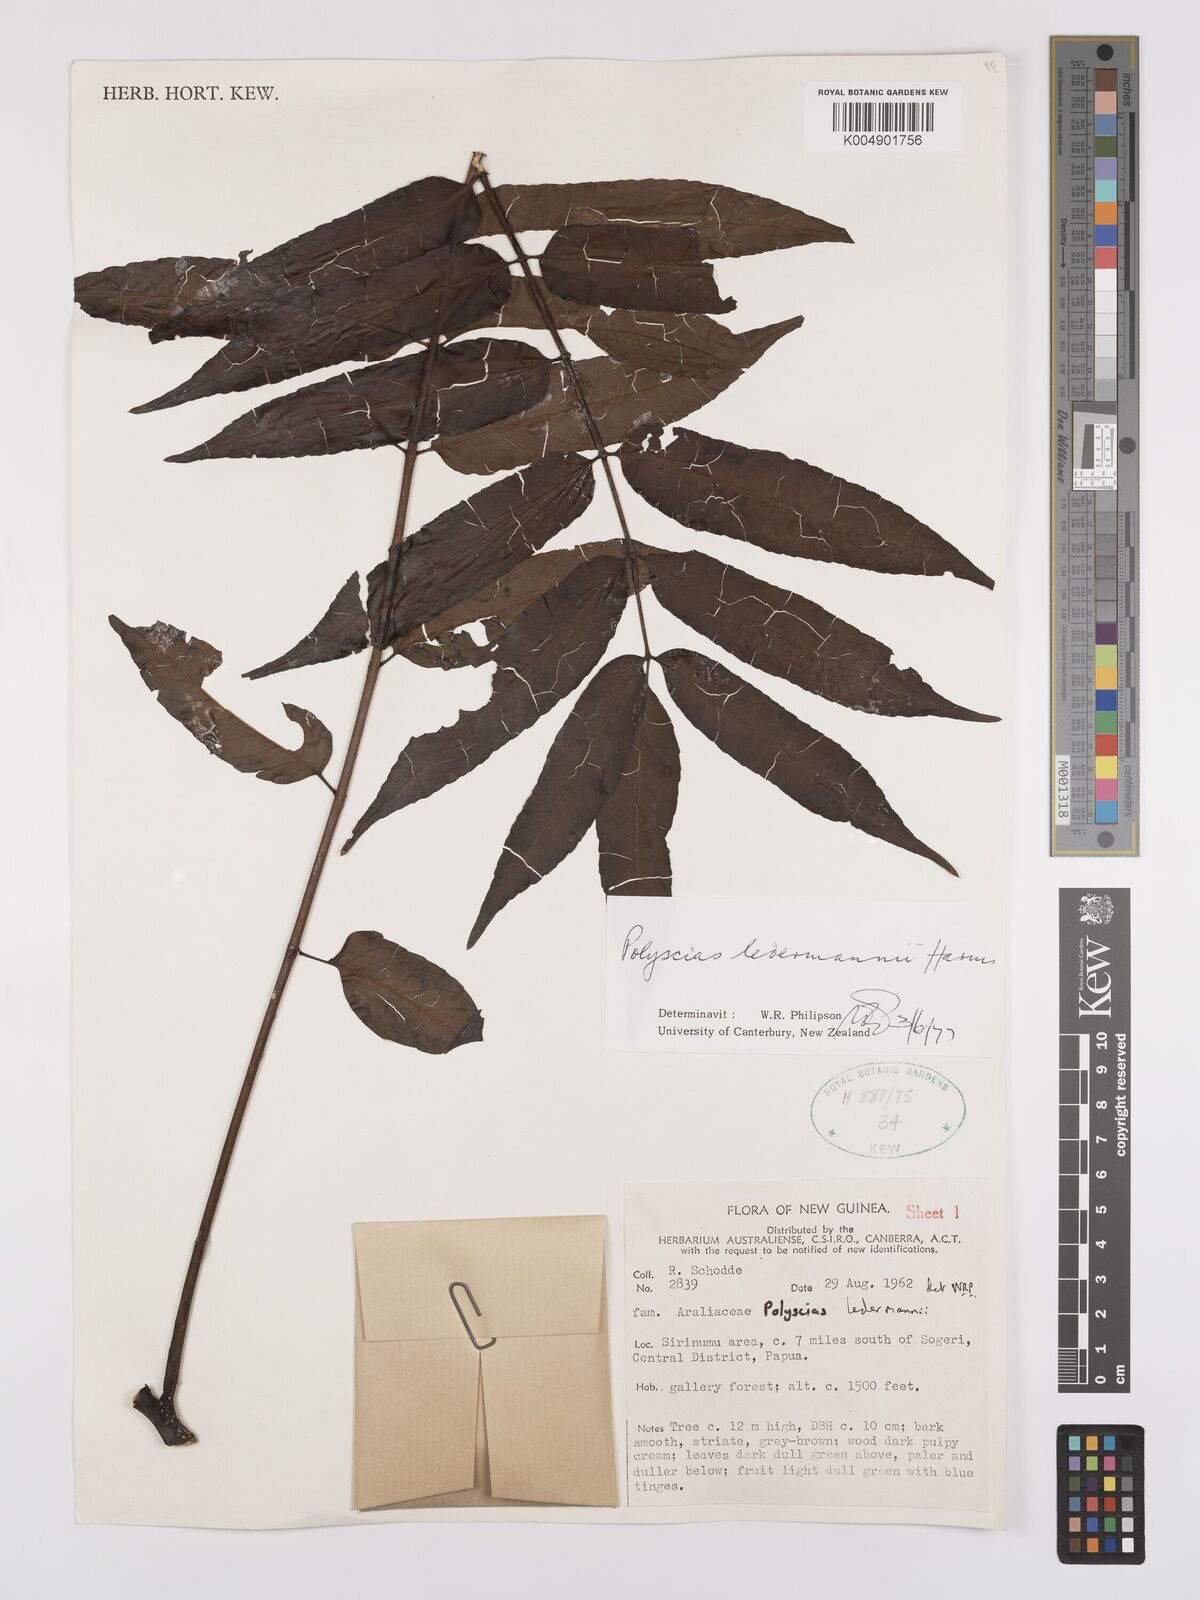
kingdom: Plantae
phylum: Tracheophyta
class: Magnoliopsida
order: Apiales
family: Araliaceae
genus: Polyscias
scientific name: Polyscias ledermannii
